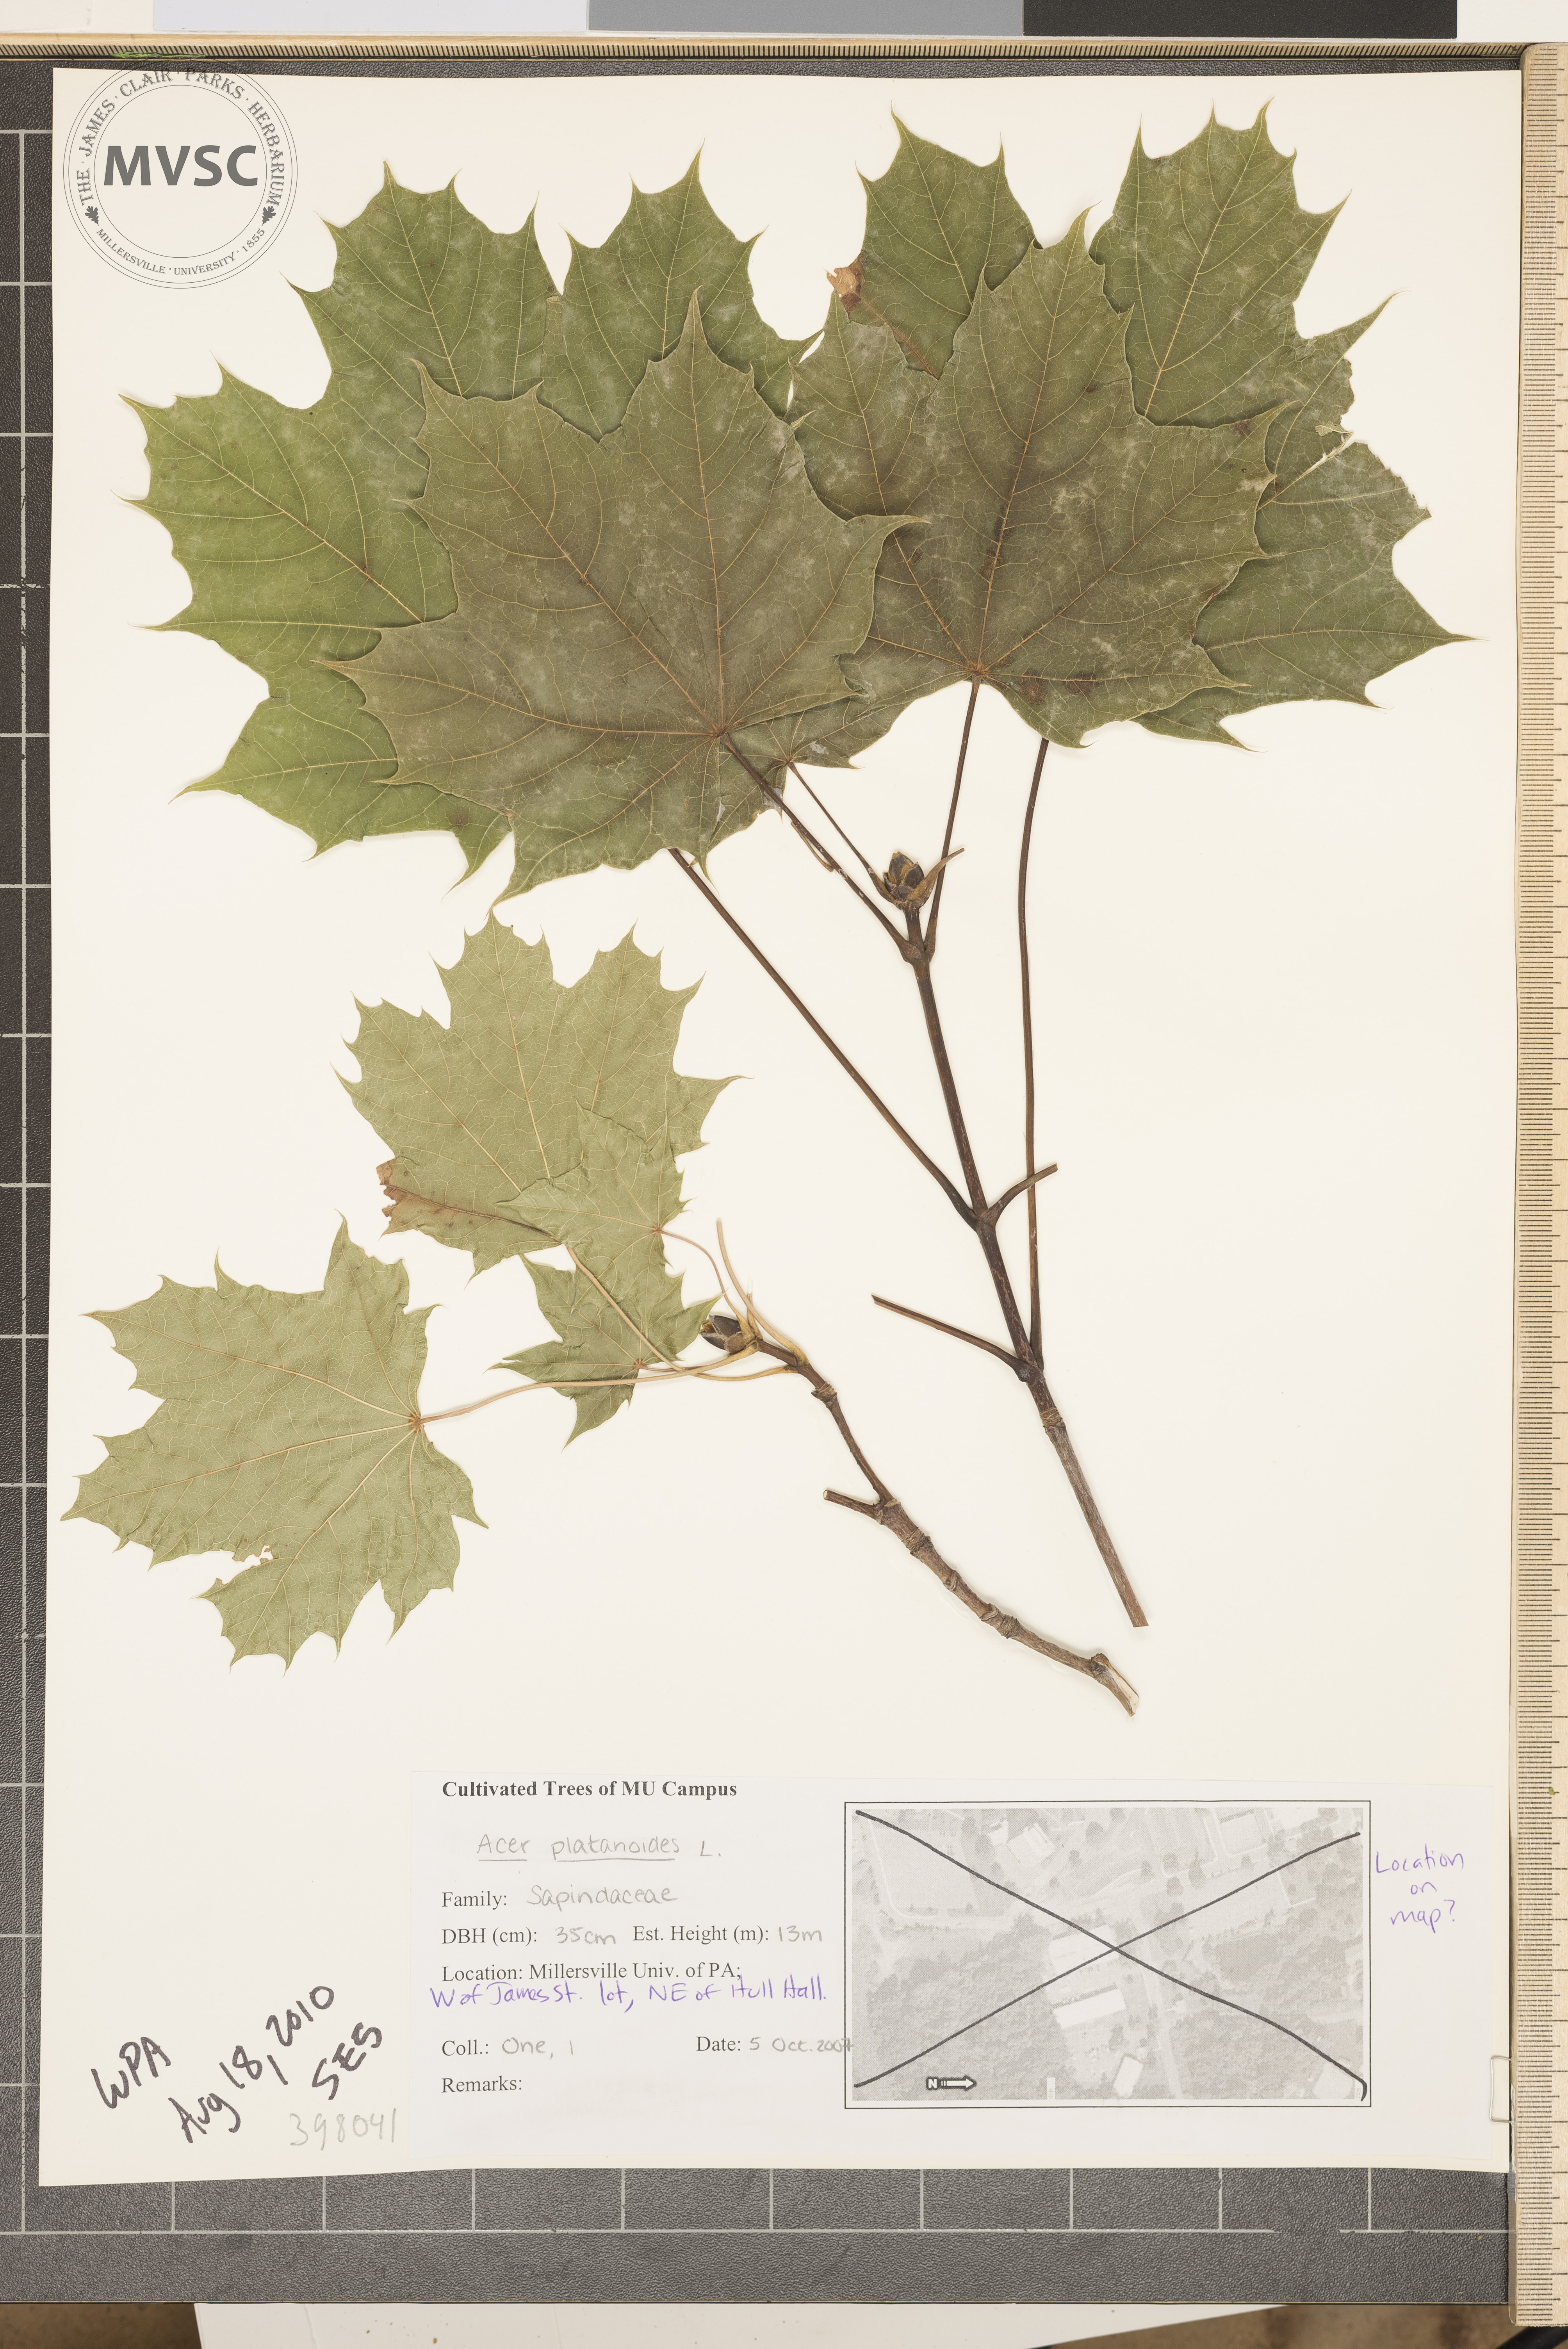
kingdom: Plantae
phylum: Tracheophyta
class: Magnoliopsida
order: Sapindales
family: Sapindaceae
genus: Acer
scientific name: Acer platanoides
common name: Norway maple
